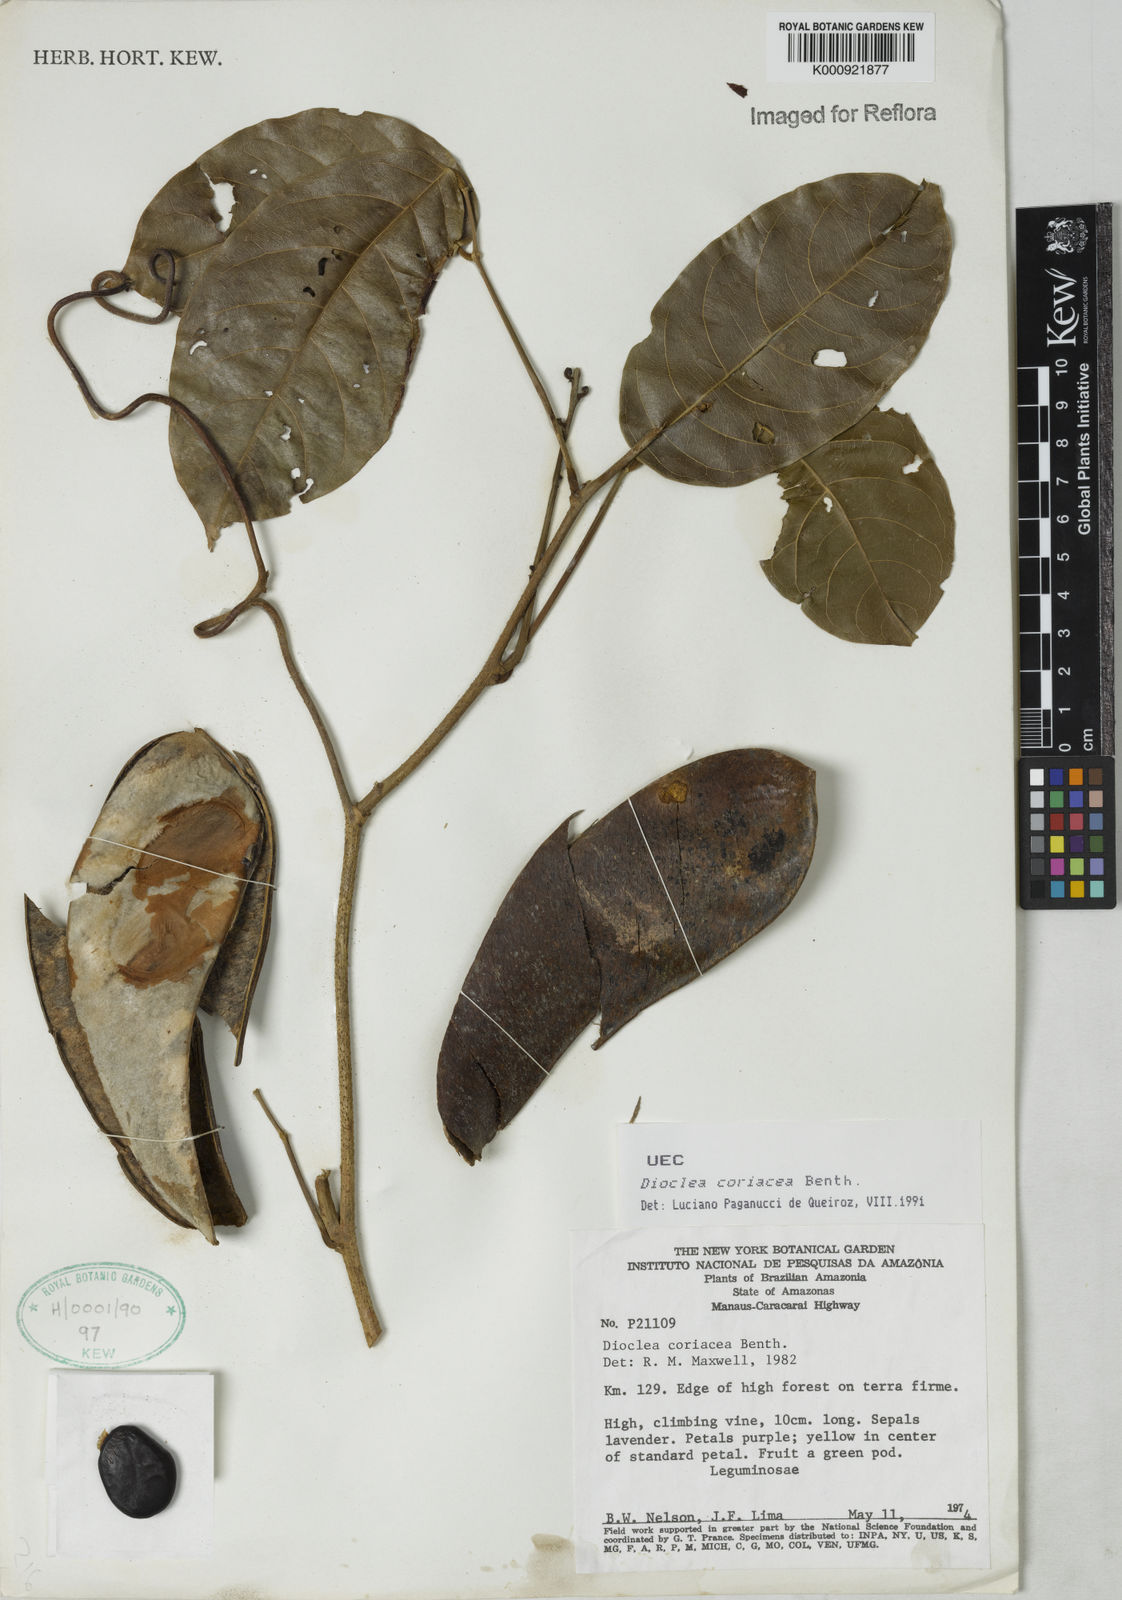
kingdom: Plantae
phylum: Tracheophyta
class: Magnoliopsida
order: Fabales
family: Fabaceae
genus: Macropsychanthus
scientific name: Macropsychanthus coriaceus
